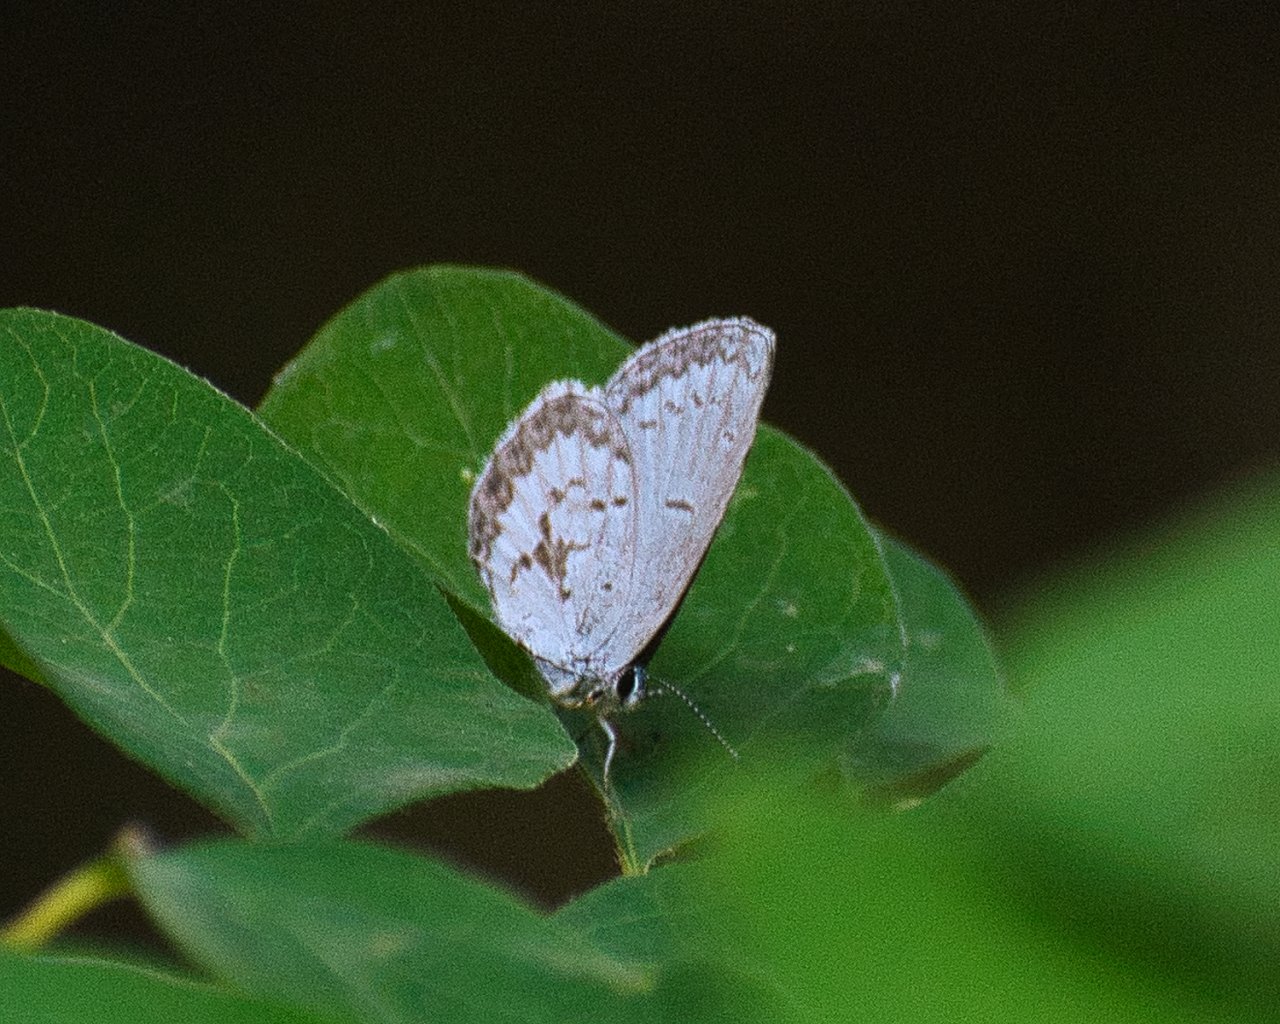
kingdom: Animalia
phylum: Arthropoda
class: Insecta
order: Lepidoptera
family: Lycaenidae
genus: Celastrina
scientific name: Celastrina ladon
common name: Echo Azure
